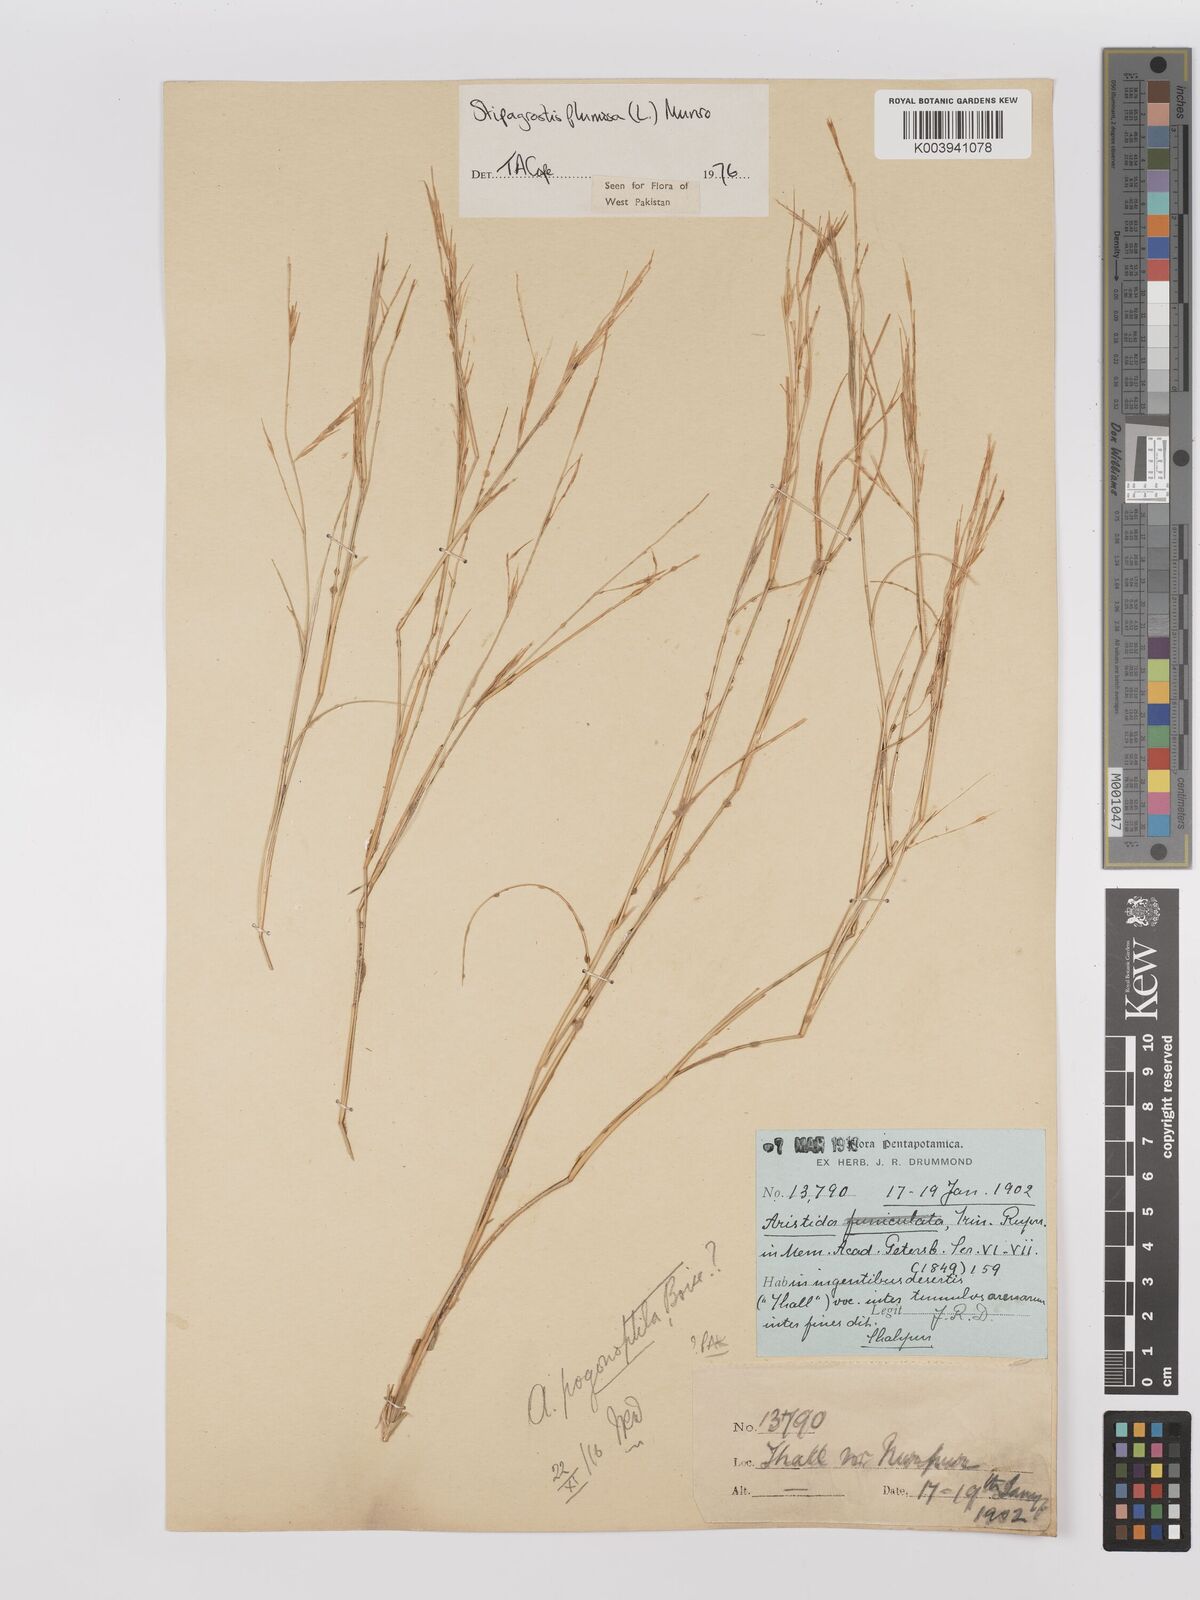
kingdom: Plantae
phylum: Tracheophyta
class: Liliopsida
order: Poales
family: Poaceae
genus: Stipagrostis
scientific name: Stipagrostis plumosa
